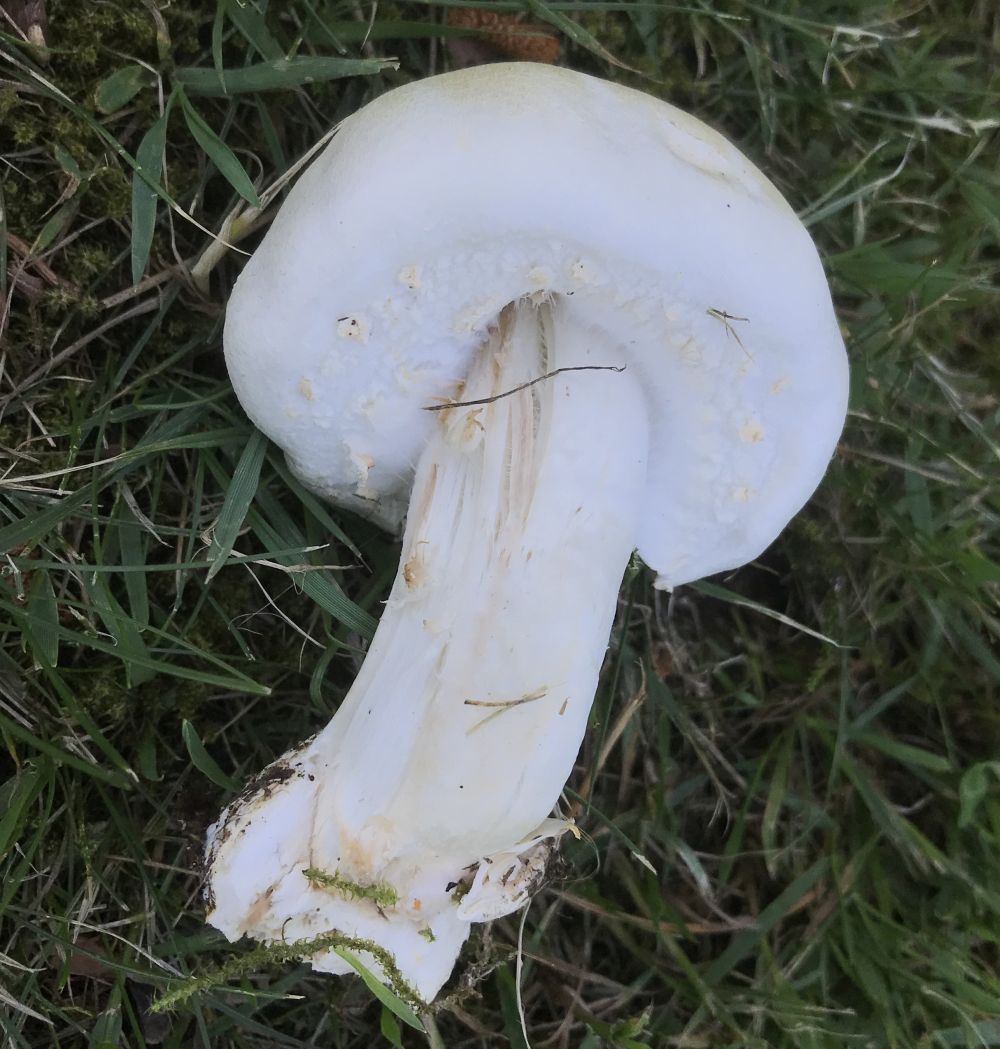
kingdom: Fungi
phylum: Basidiomycota
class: Agaricomycetes
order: Agaricales
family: Agaricaceae
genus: Agaricus
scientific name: Agaricus arvensis
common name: ager-champignon
